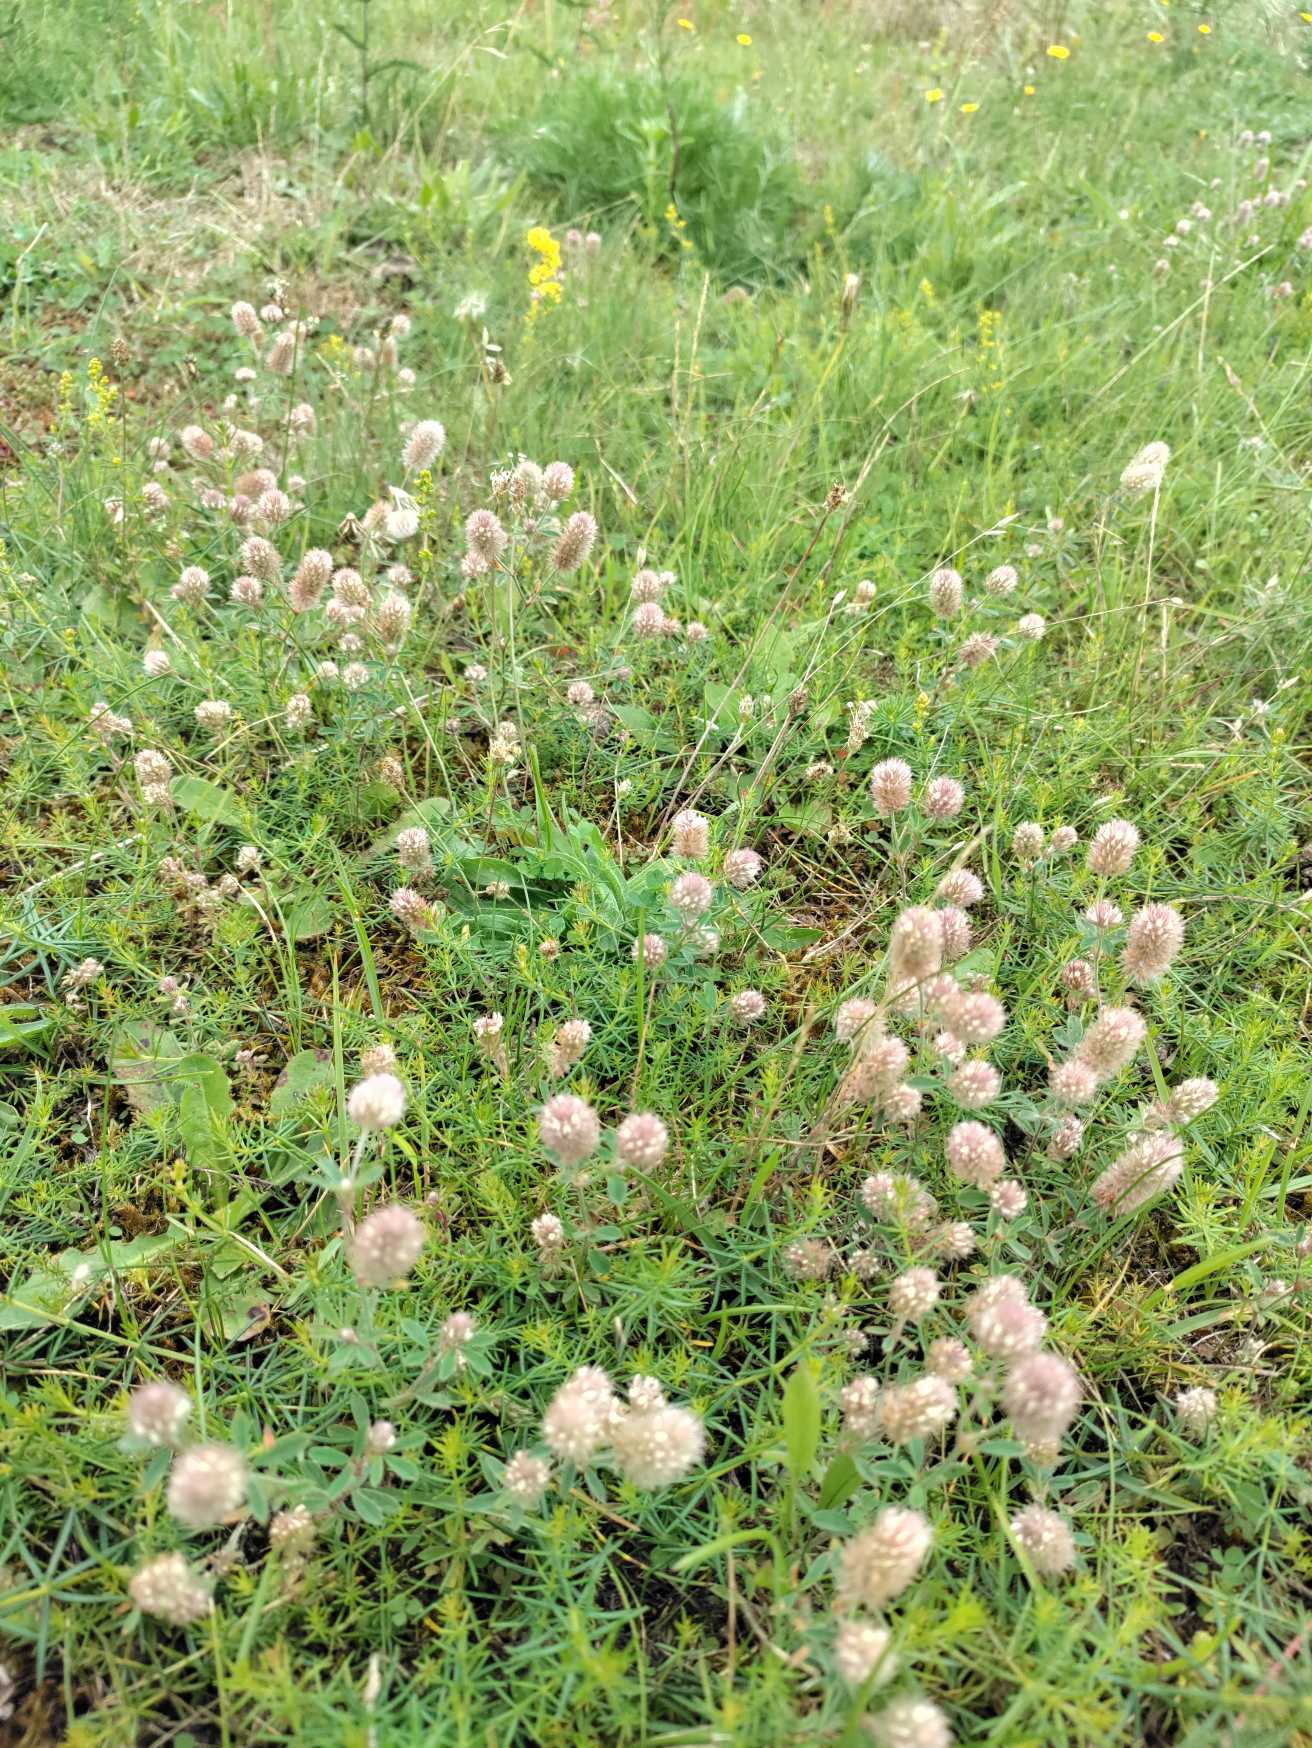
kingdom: Plantae
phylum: Tracheophyta
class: Magnoliopsida
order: Fabales
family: Fabaceae
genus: Trifolium
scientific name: Trifolium arvense
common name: Hare-kløver
